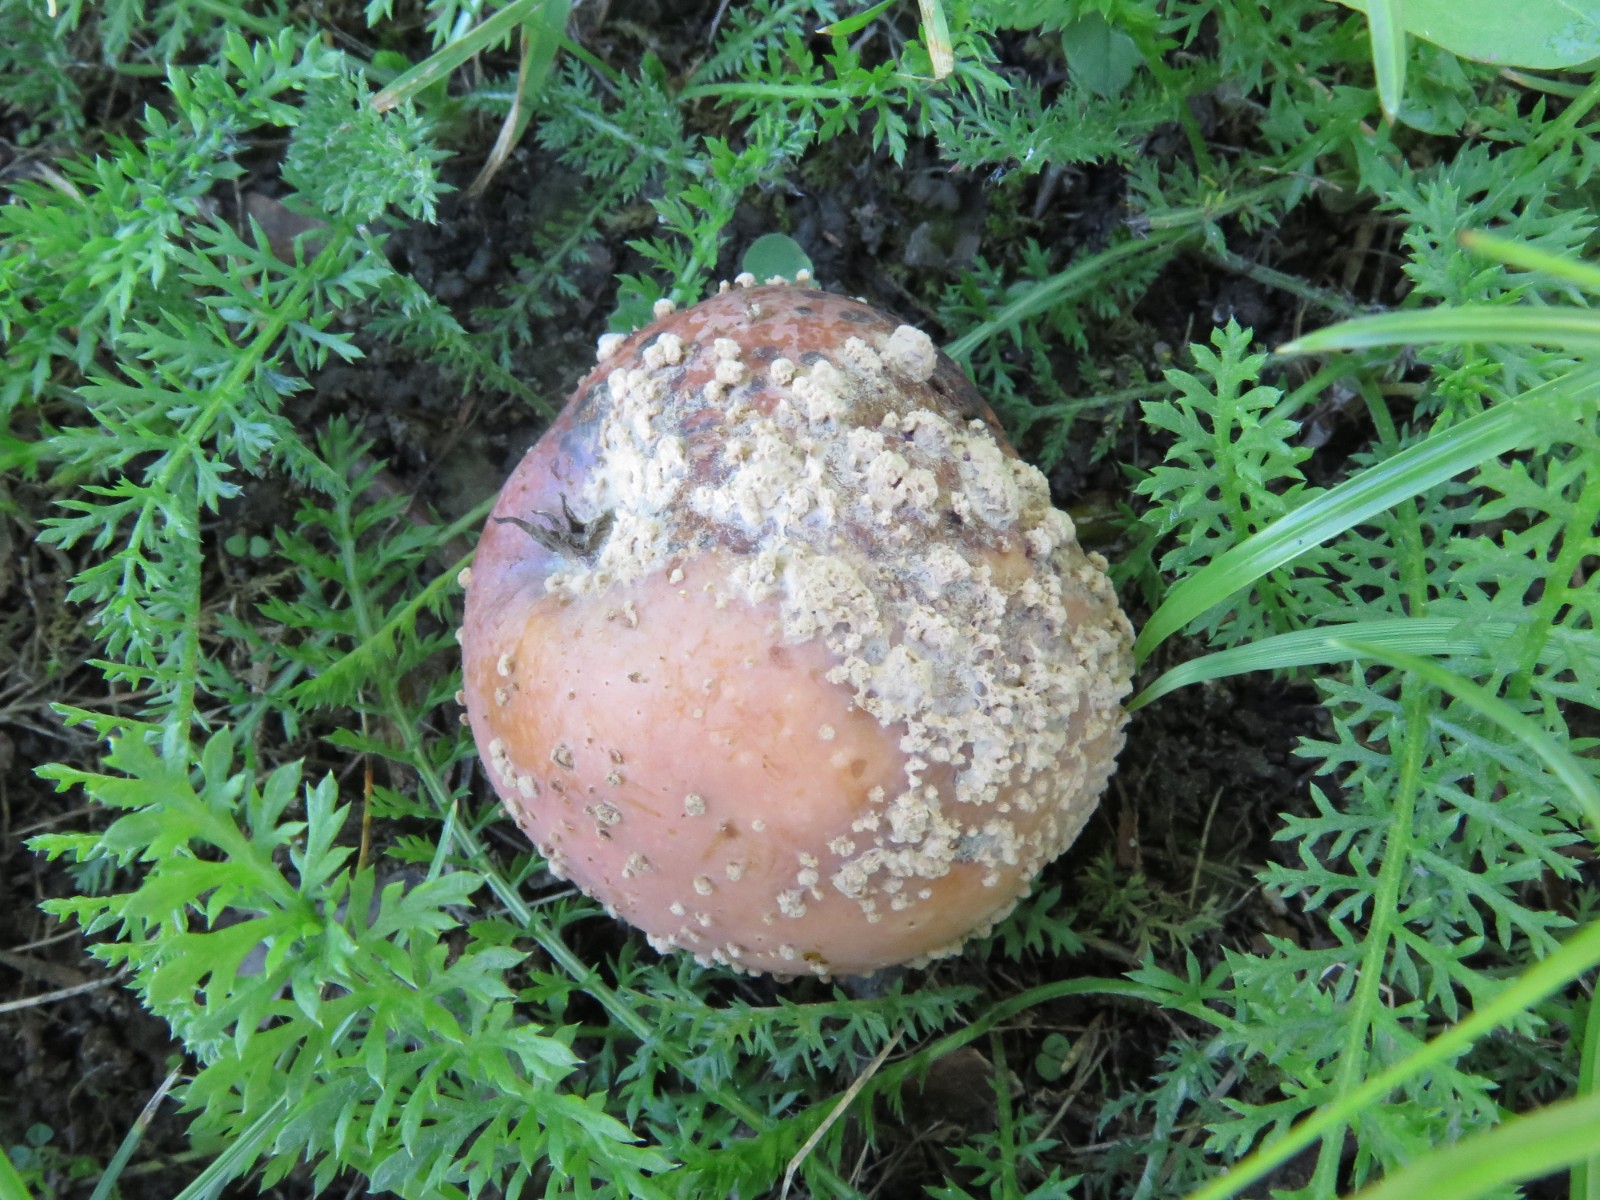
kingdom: Fungi
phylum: Ascomycota
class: Leotiomycetes
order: Helotiales
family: Sclerotiniaceae
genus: Monilinia
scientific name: Monilinia fructigena
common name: æble-knoldskive
